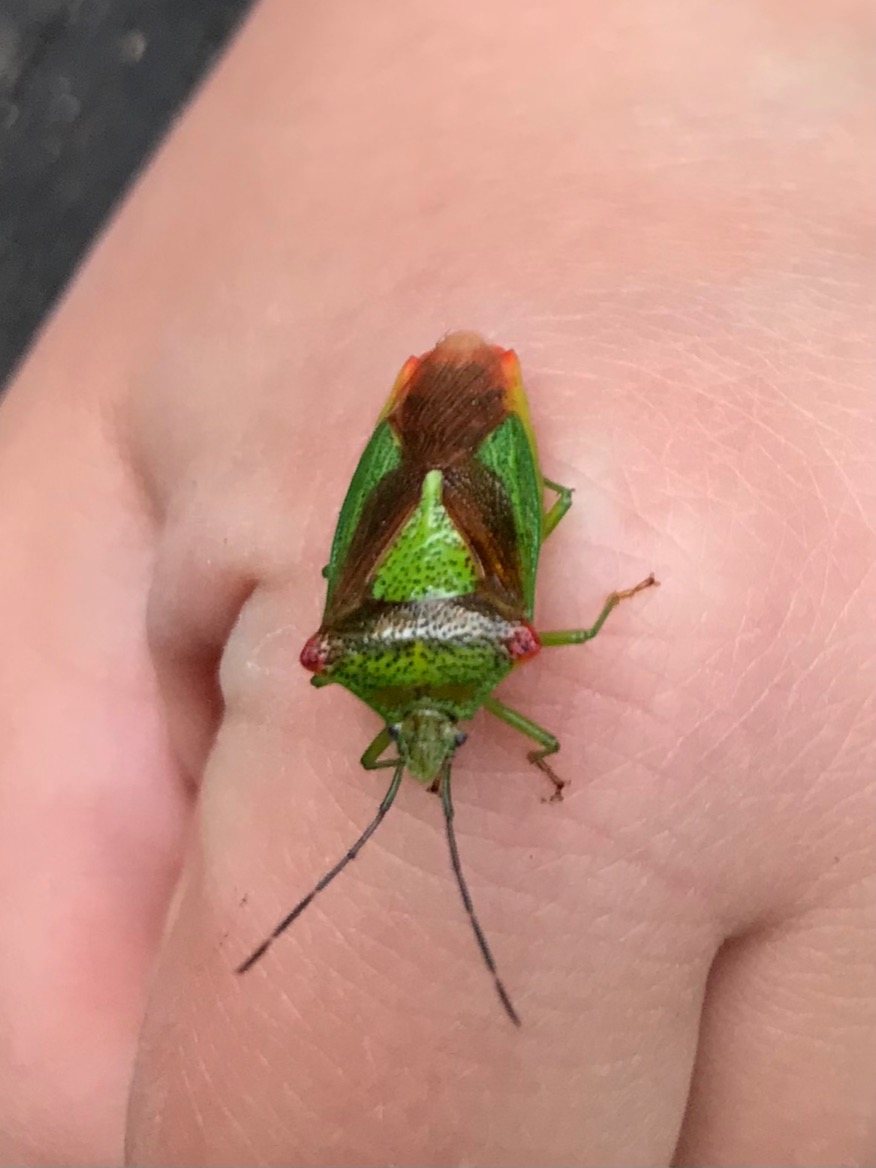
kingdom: Animalia
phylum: Arthropoda
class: Insecta
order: Hemiptera
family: Acanthosomatidae
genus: Acanthosoma
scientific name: Acanthosoma haemorrhoidale
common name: Stor løvtæge
